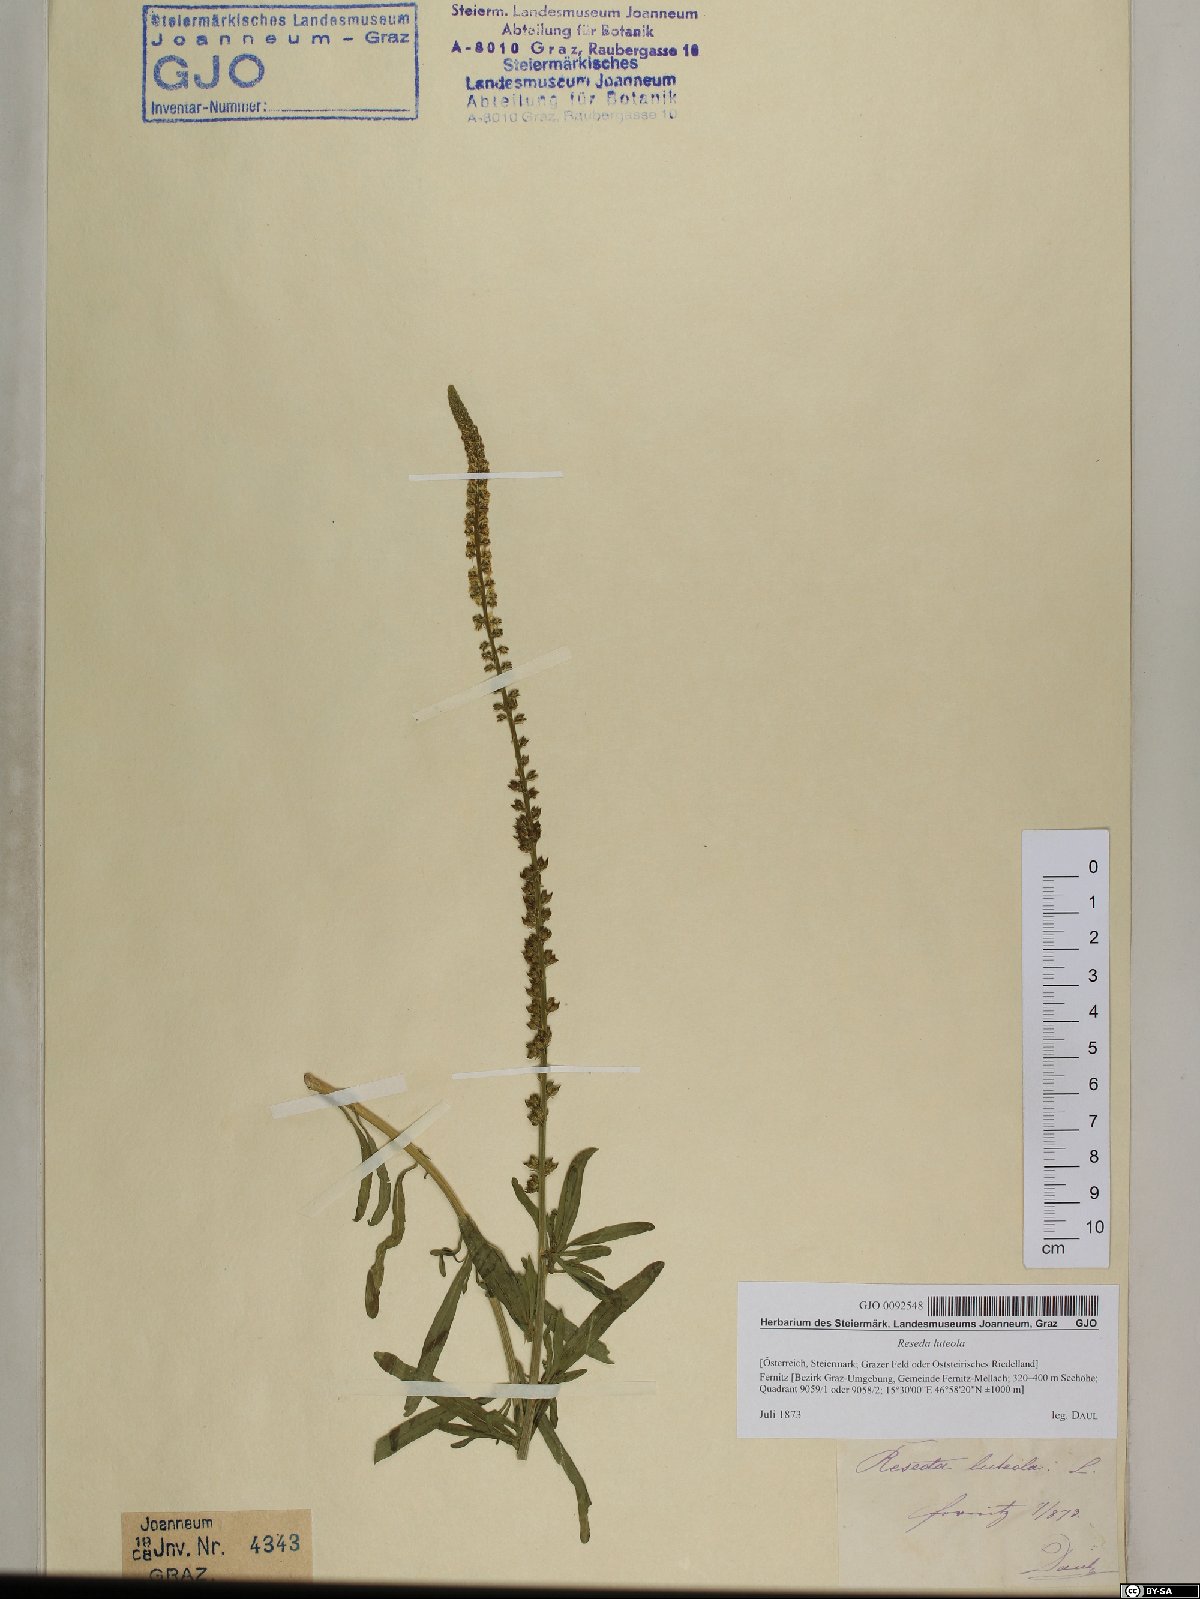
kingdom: Plantae
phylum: Tracheophyta
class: Magnoliopsida
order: Brassicales
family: Resedaceae
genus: Reseda
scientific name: Reseda luteola
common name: Weld
